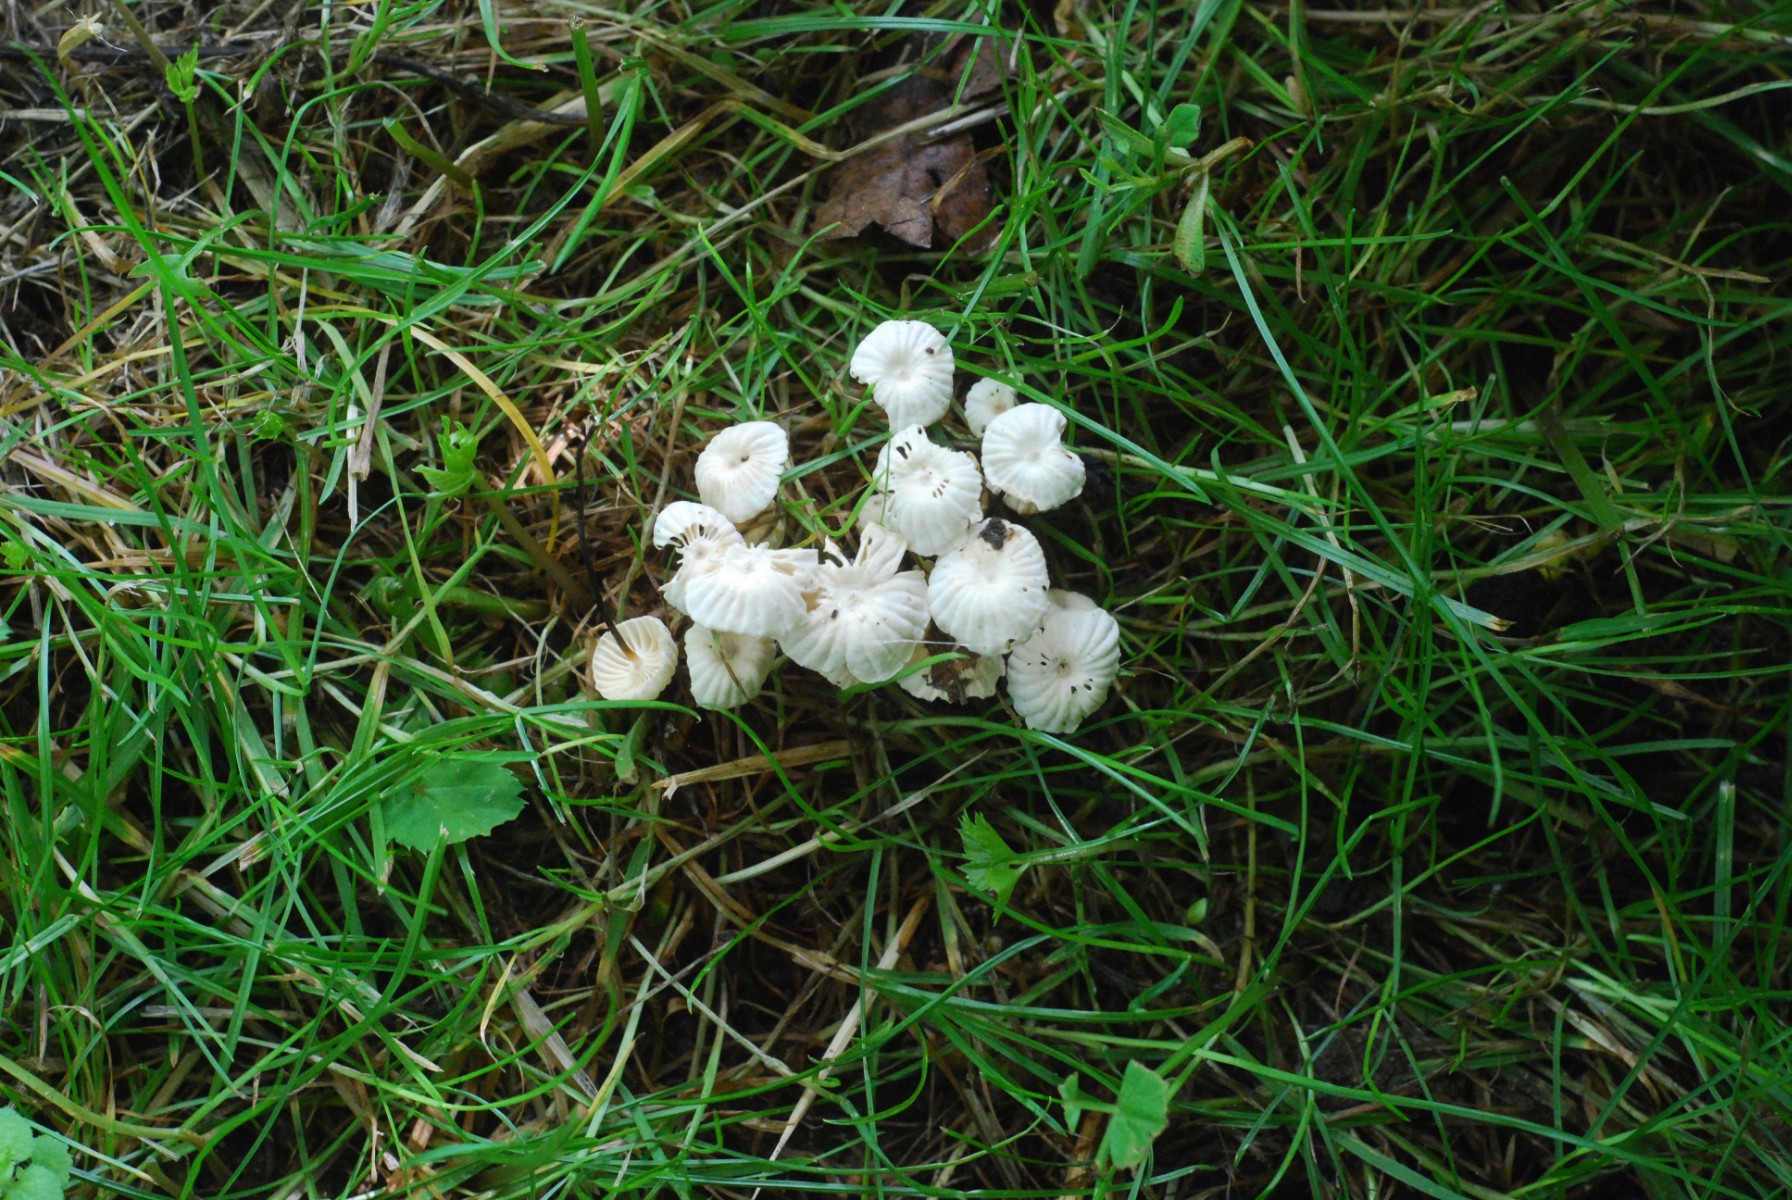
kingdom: Fungi
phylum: Basidiomycota
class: Agaricomycetes
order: Agaricales
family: Marasmiaceae
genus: Marasmius
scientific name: Marasmius rotula
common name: hjul-bruskhat
